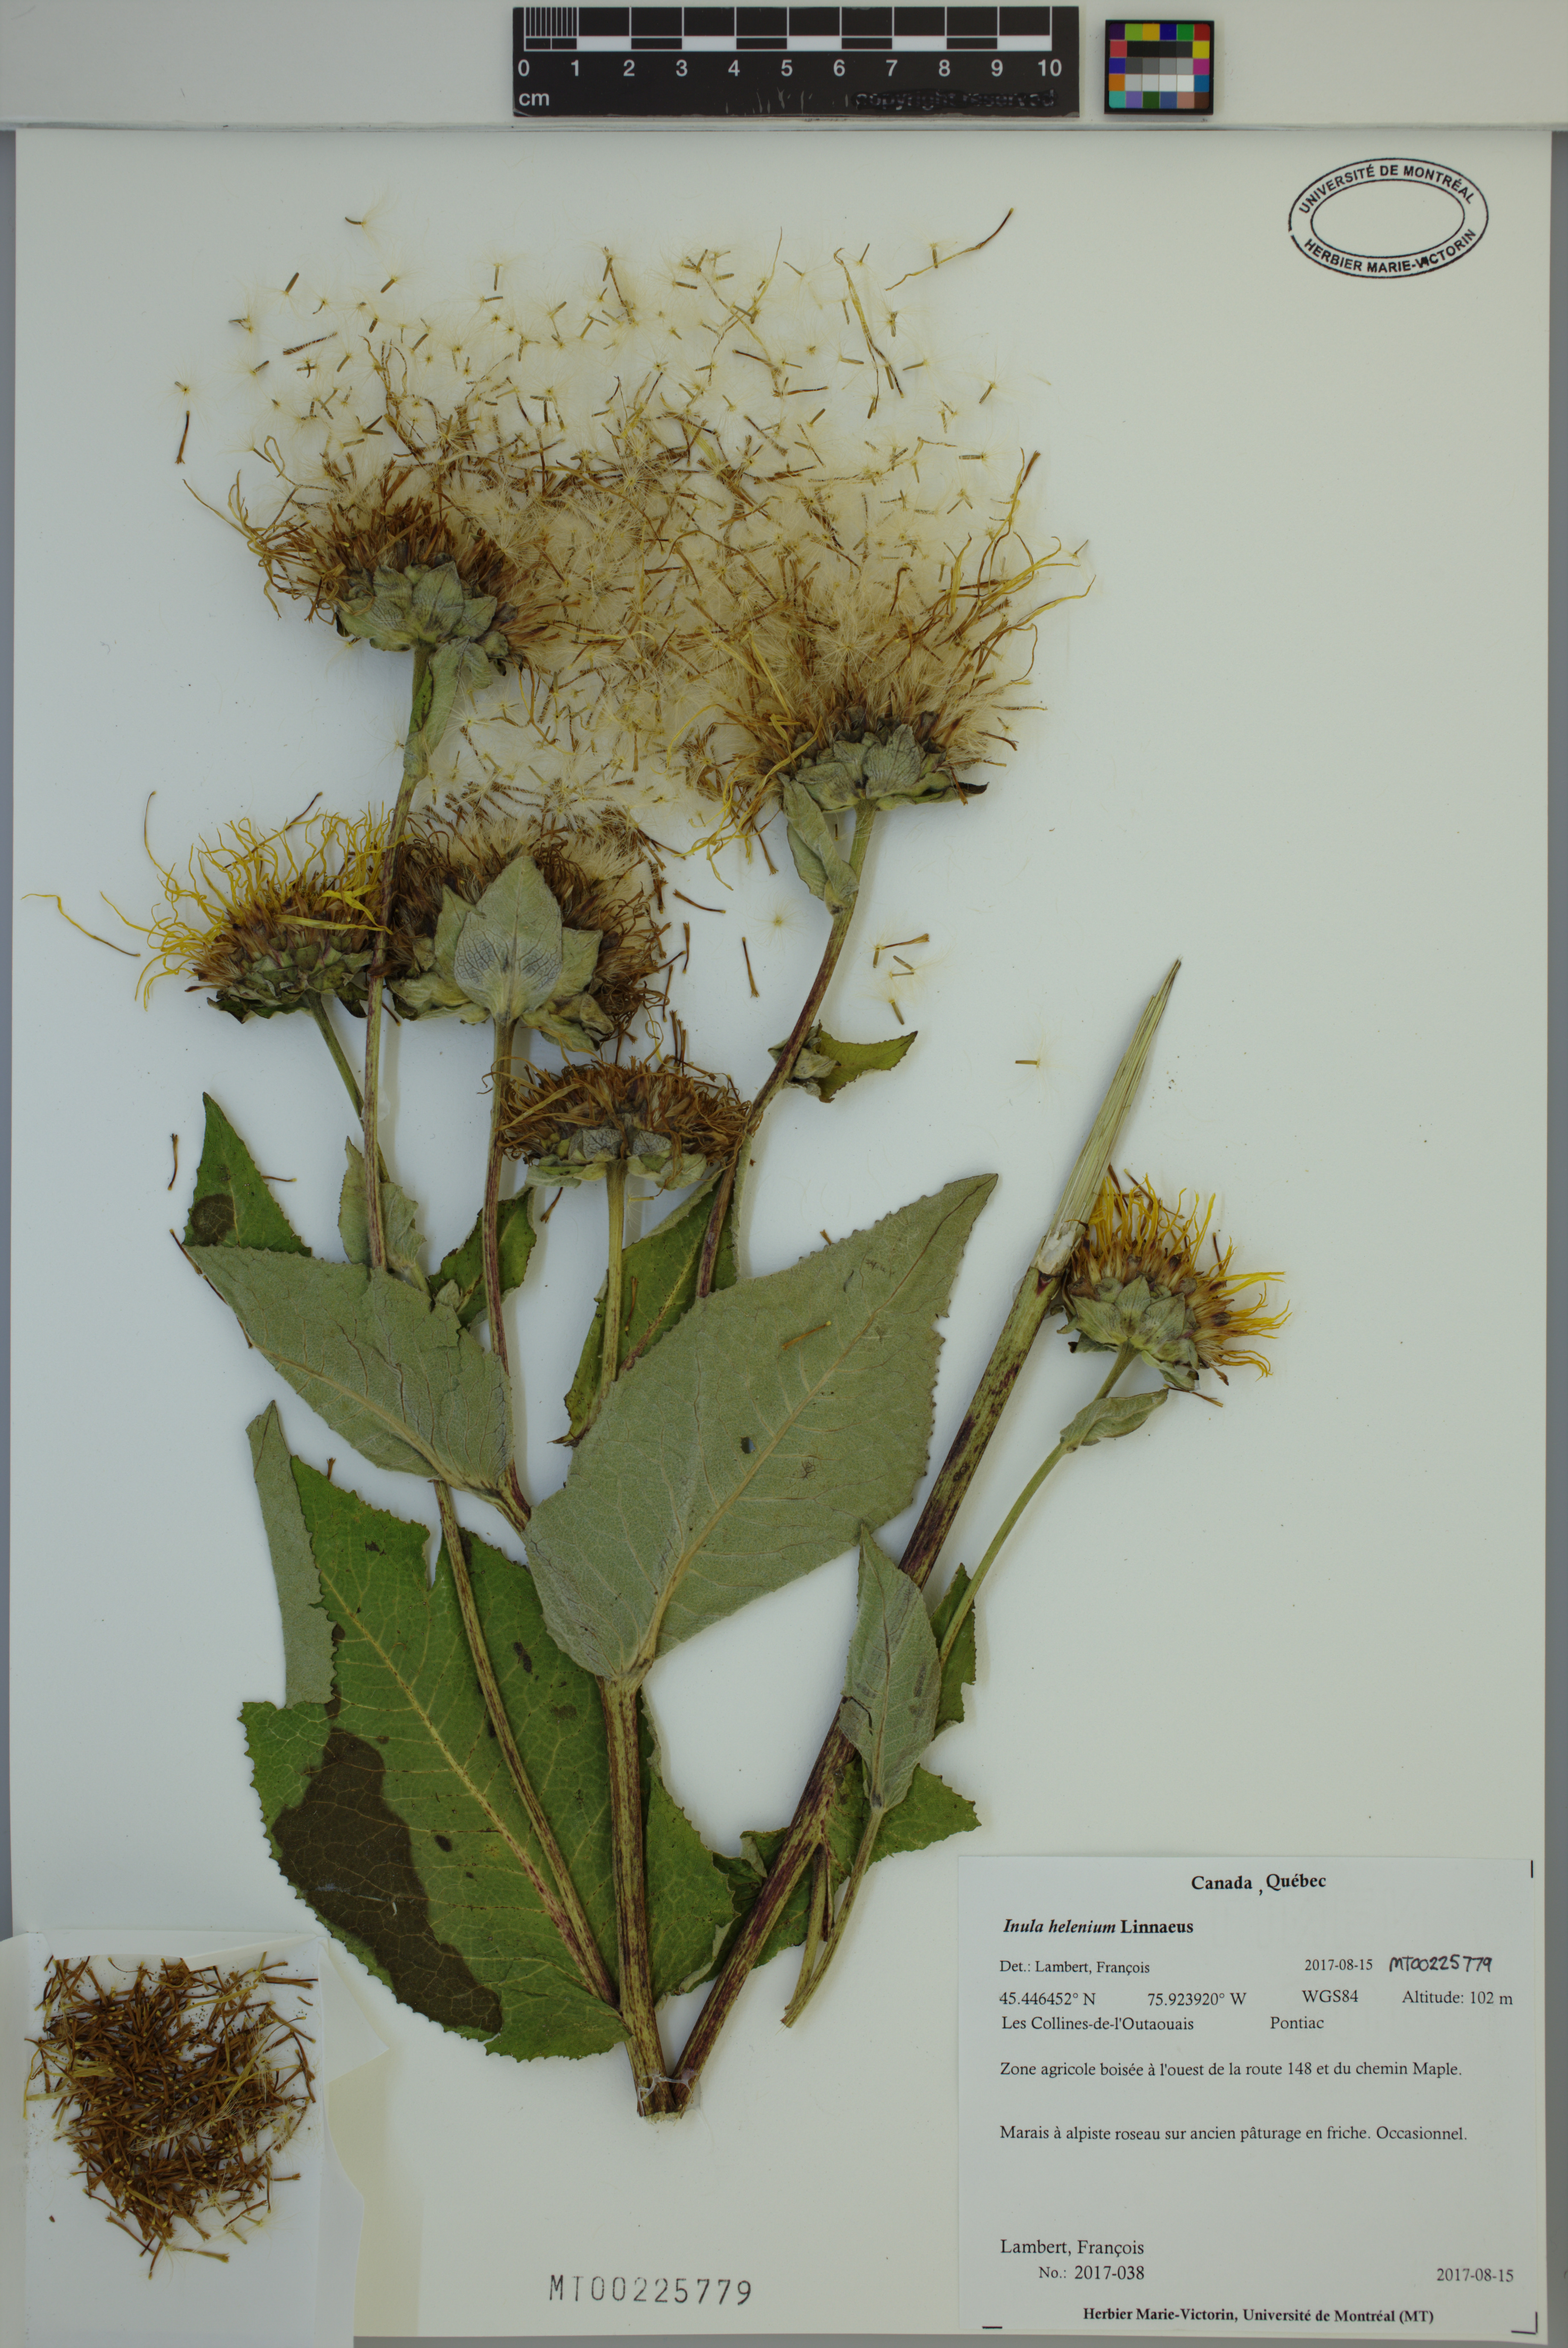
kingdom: Plantae
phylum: Tracheophyta
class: Magnoliopsida
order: Asterales
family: Asteraceae
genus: Inula
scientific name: Inula helenium
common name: Elecampane
